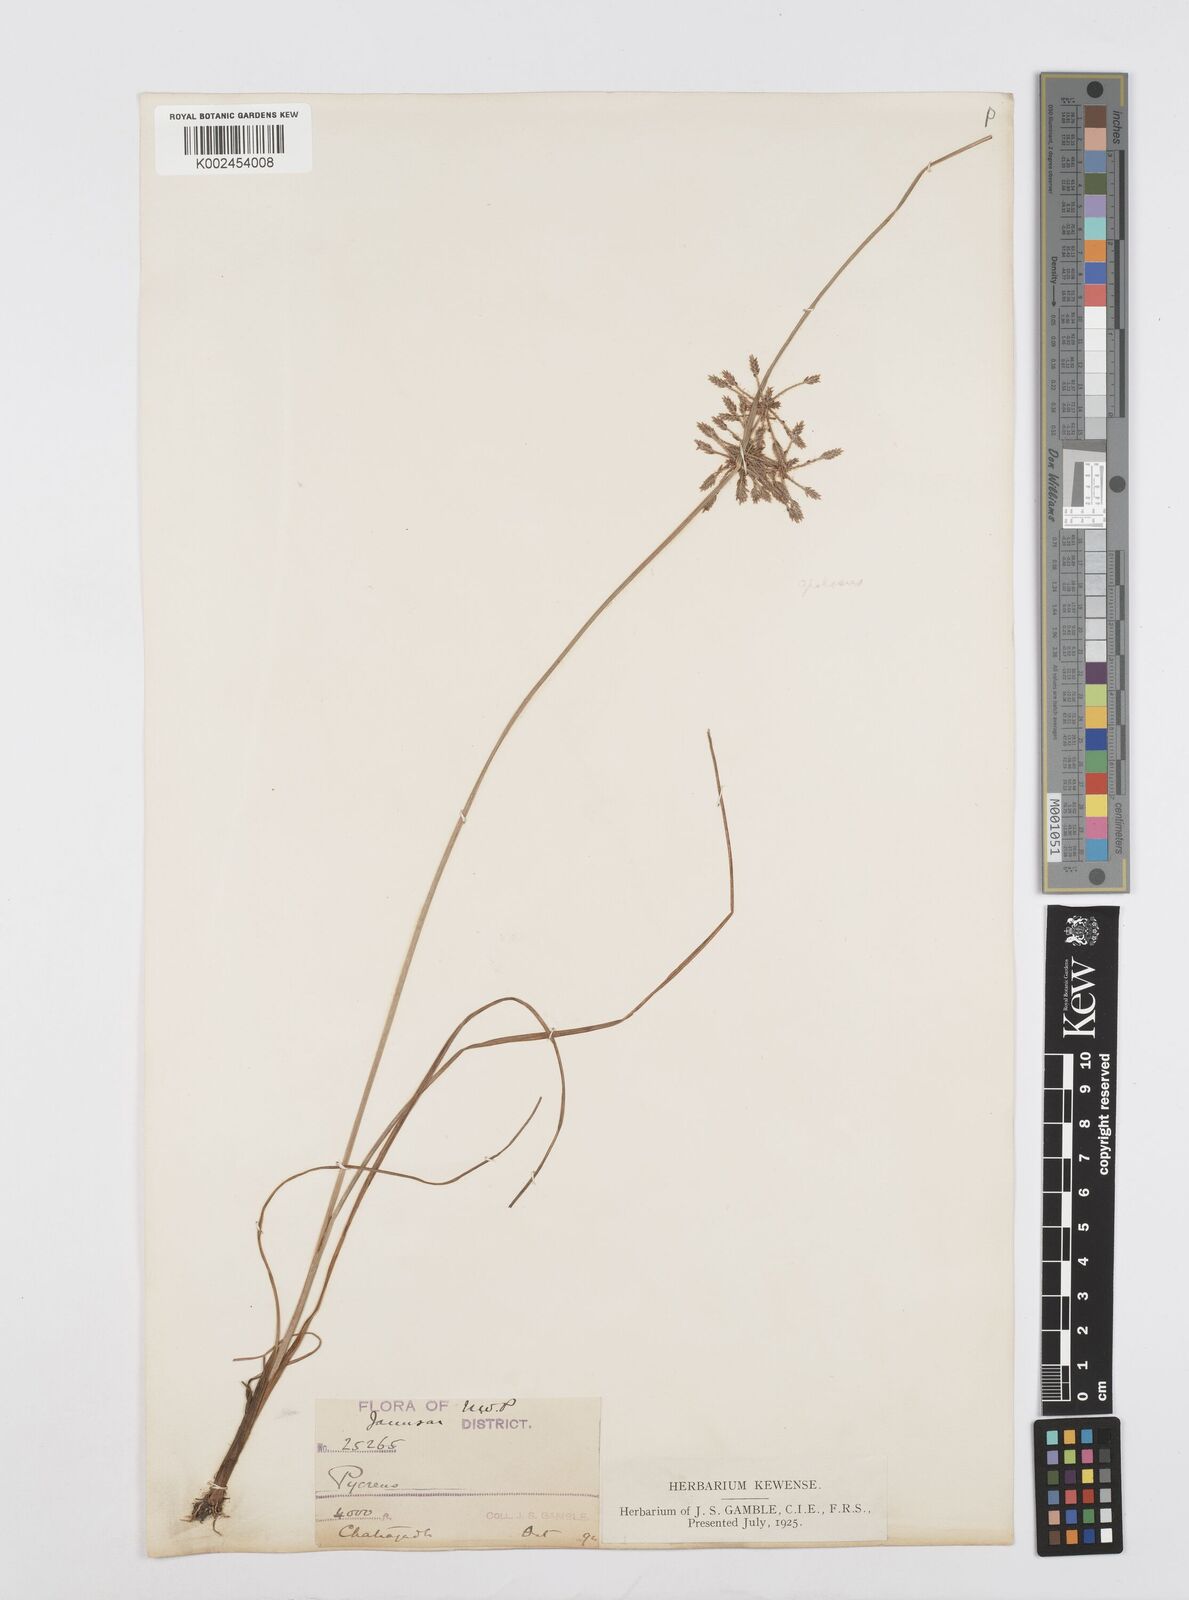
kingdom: Plantae
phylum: Tracheophyta
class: Liliopsida
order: Poales
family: Cyperaceae
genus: Cyperus
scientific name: Cyperus flavidus
